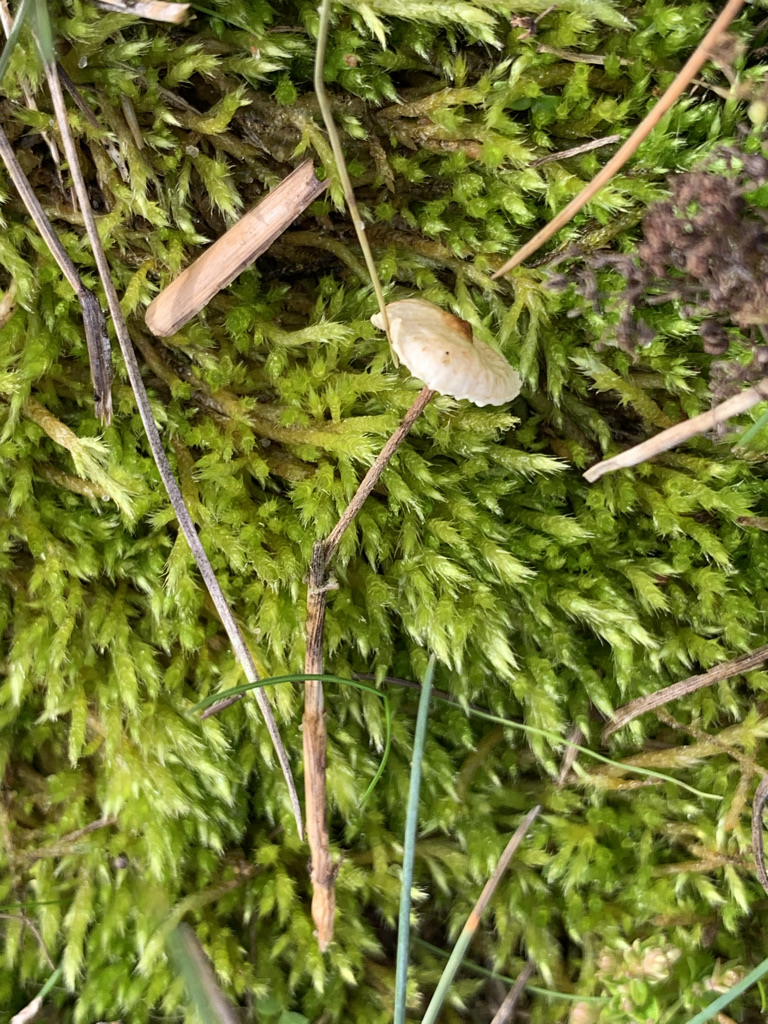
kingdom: Fungi
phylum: Basidiomycota
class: Agaricomycetes
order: Agaricales
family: Marasmiaceae
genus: Crinipellis
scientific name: Crinipellis scabella
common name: børstefod
